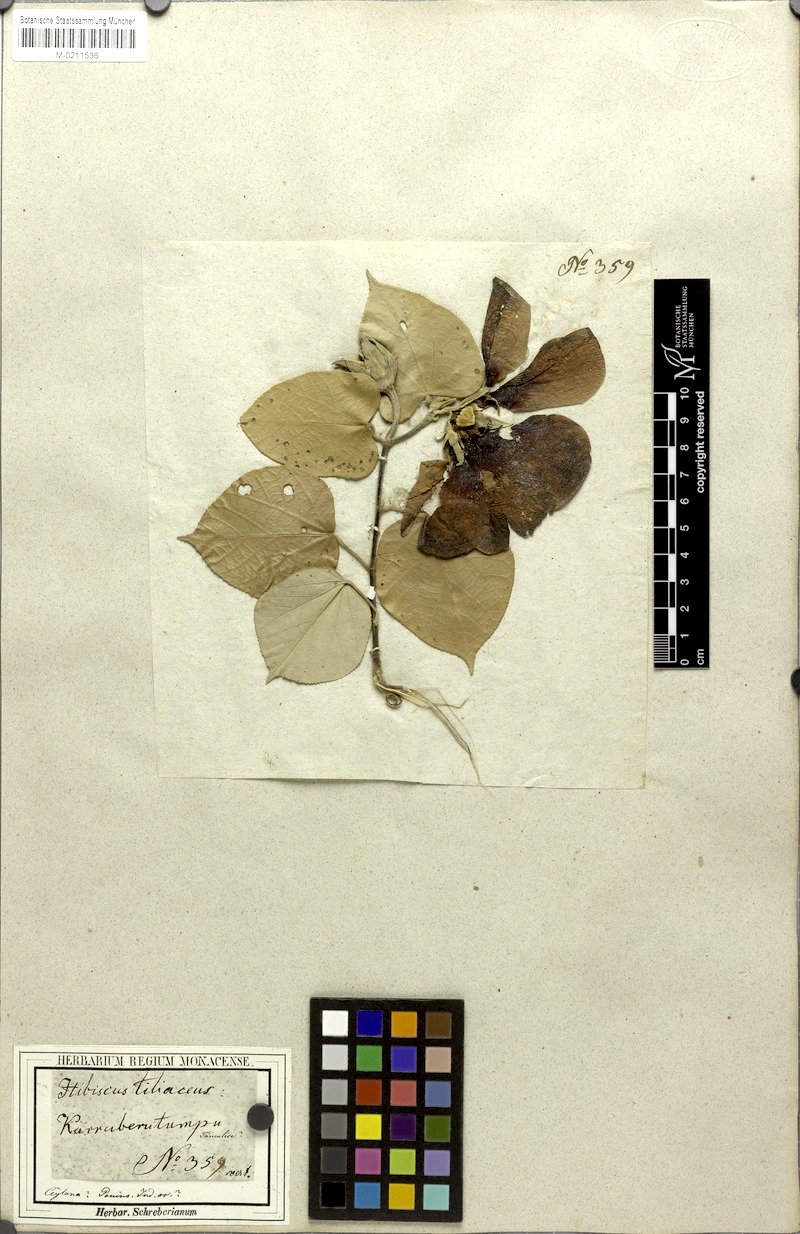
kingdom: Plantae
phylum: Tracheophyta
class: Magnoliopsida
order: Malvales
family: Malvaceae
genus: Talipariti
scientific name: Talipariti tiliaceum
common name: Sea hibiscus
